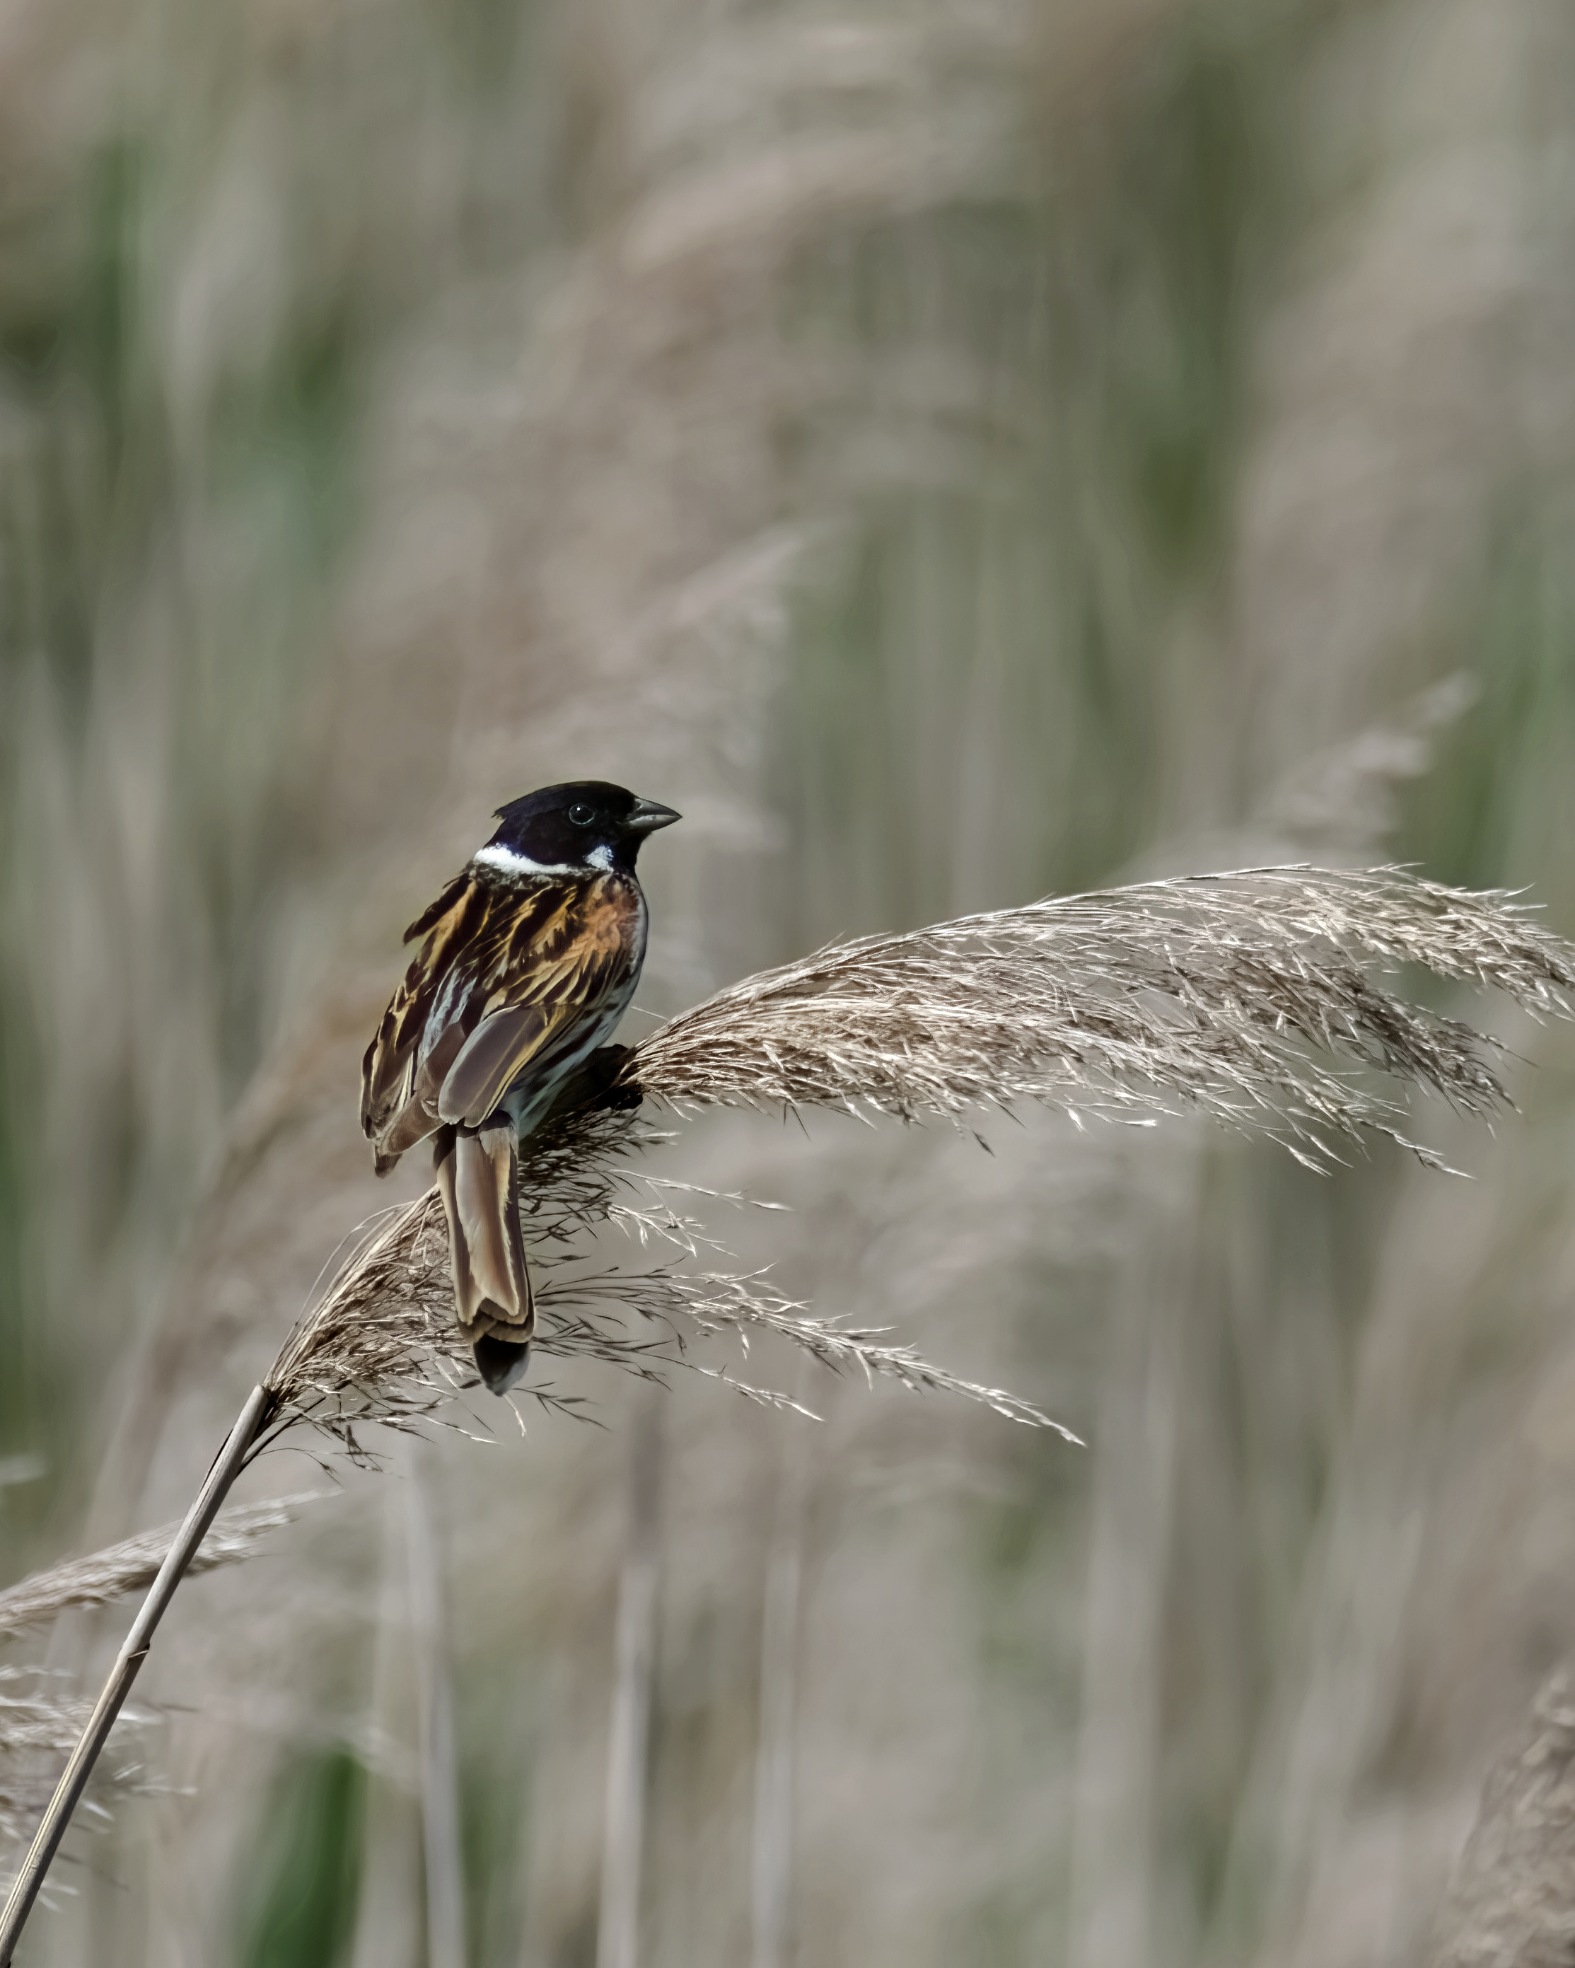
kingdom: Animalia
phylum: Chordata
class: Aves
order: Passeriformes
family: Emberizidae
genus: Emberiza
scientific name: Emberiza schoeniclus
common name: Rørspurv
